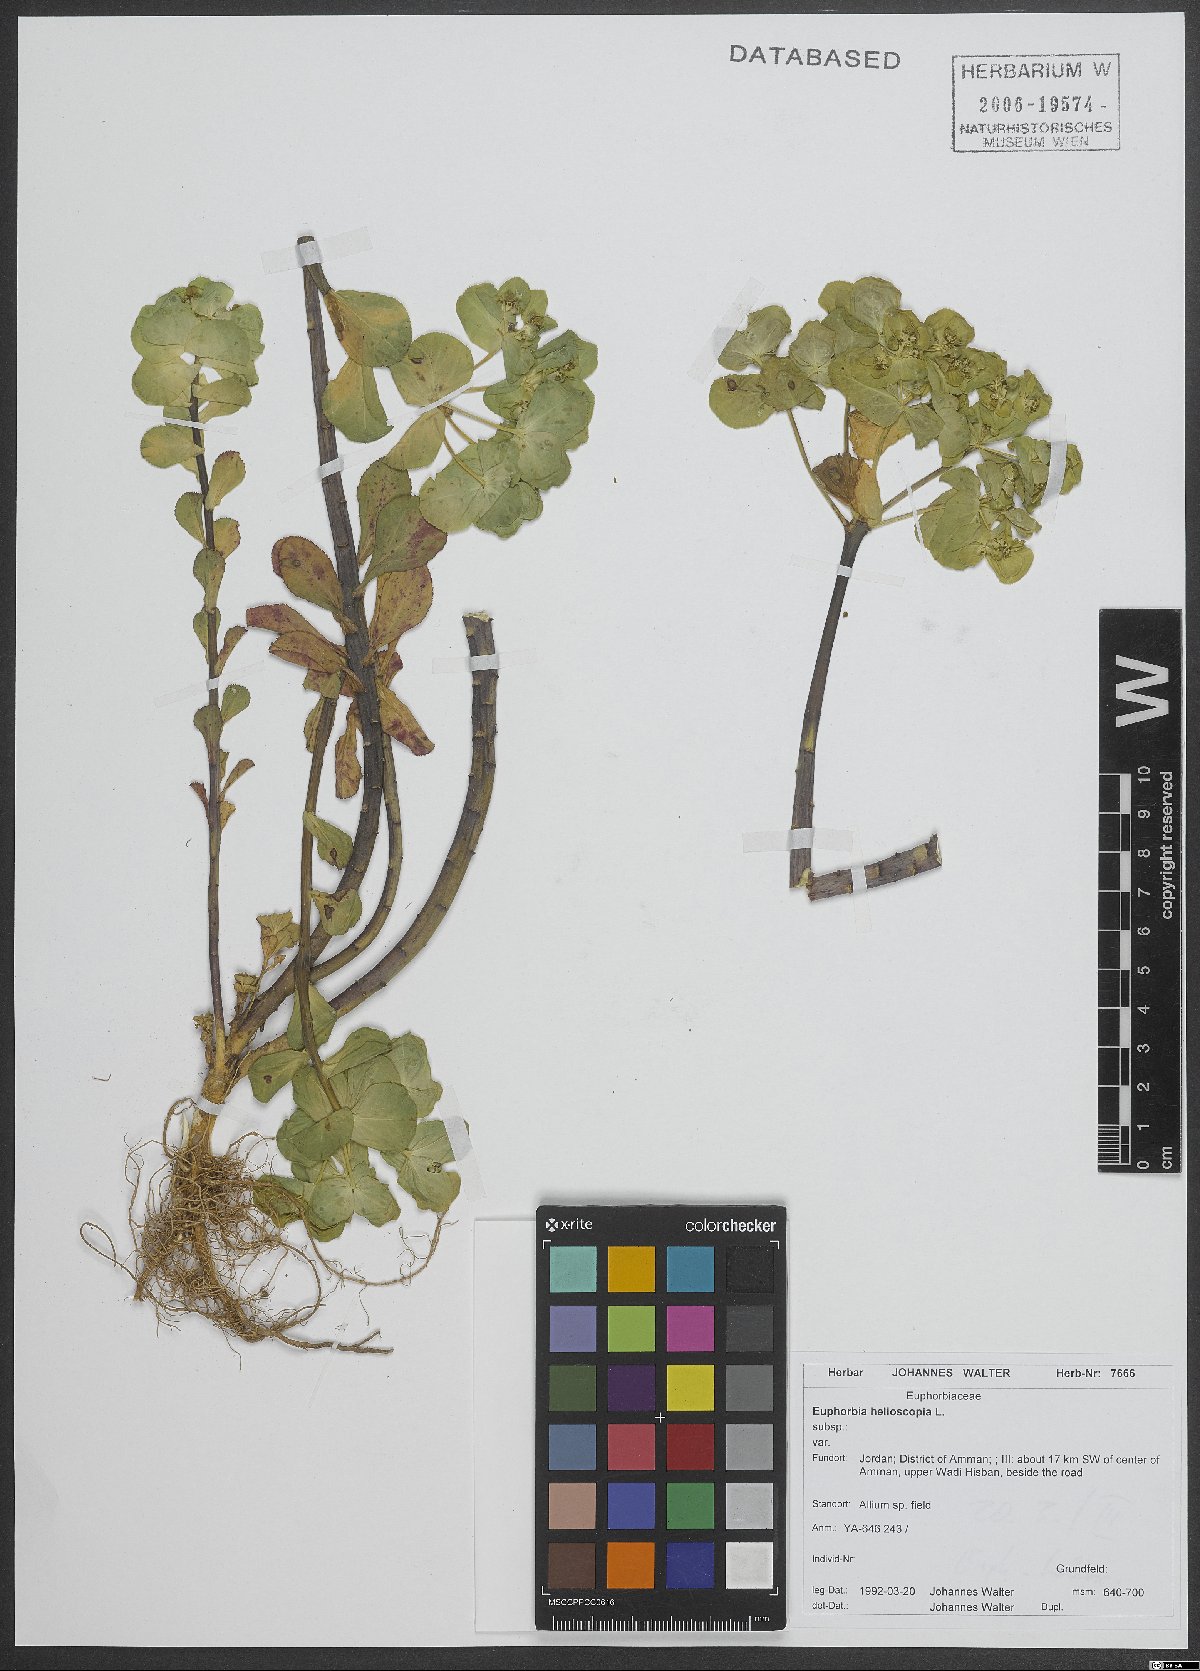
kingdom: Plantae
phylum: Tracheophyta
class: Magnoliopsida
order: Malpighiales
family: Euphorbiaceae
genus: Euphorbia
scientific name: Euphorbia helioscopia
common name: Sun spurge
